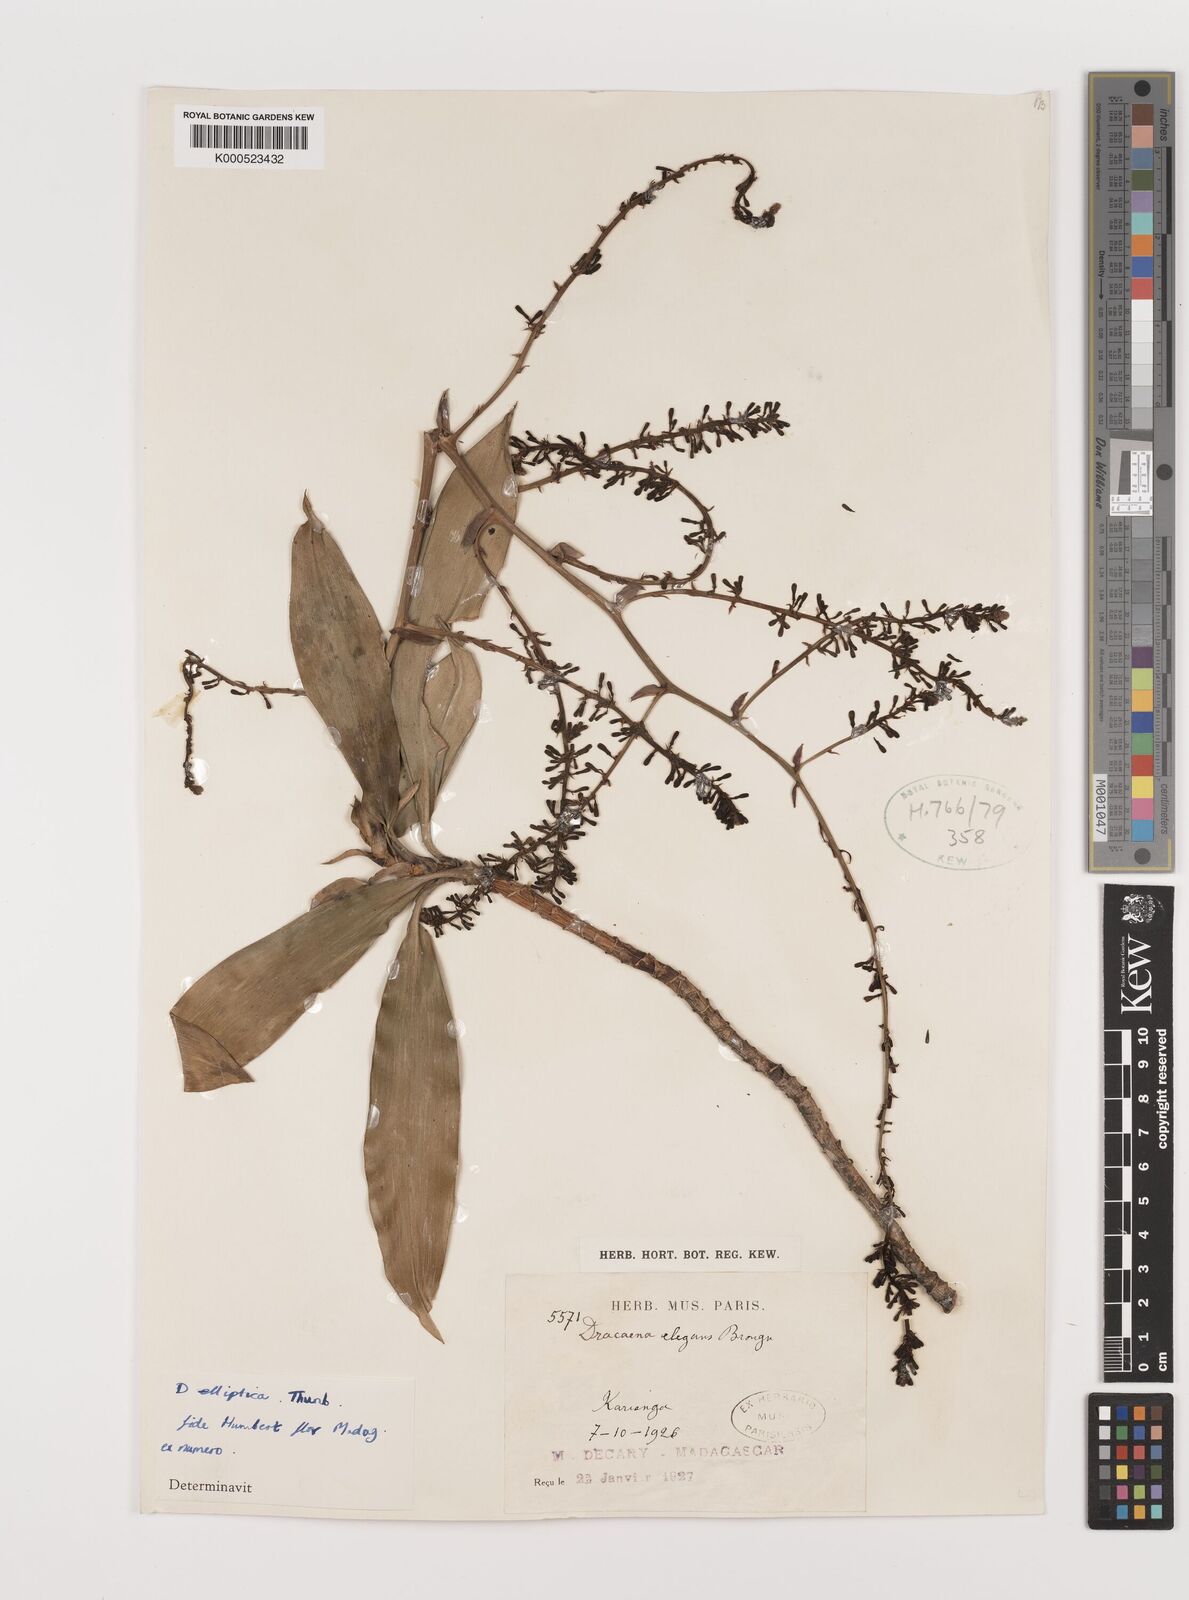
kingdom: Plantae
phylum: Tracheophyta
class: Liliopsida
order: Asparagales
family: Asparagaceae
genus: Dracaena
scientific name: Dracaena elliptica
